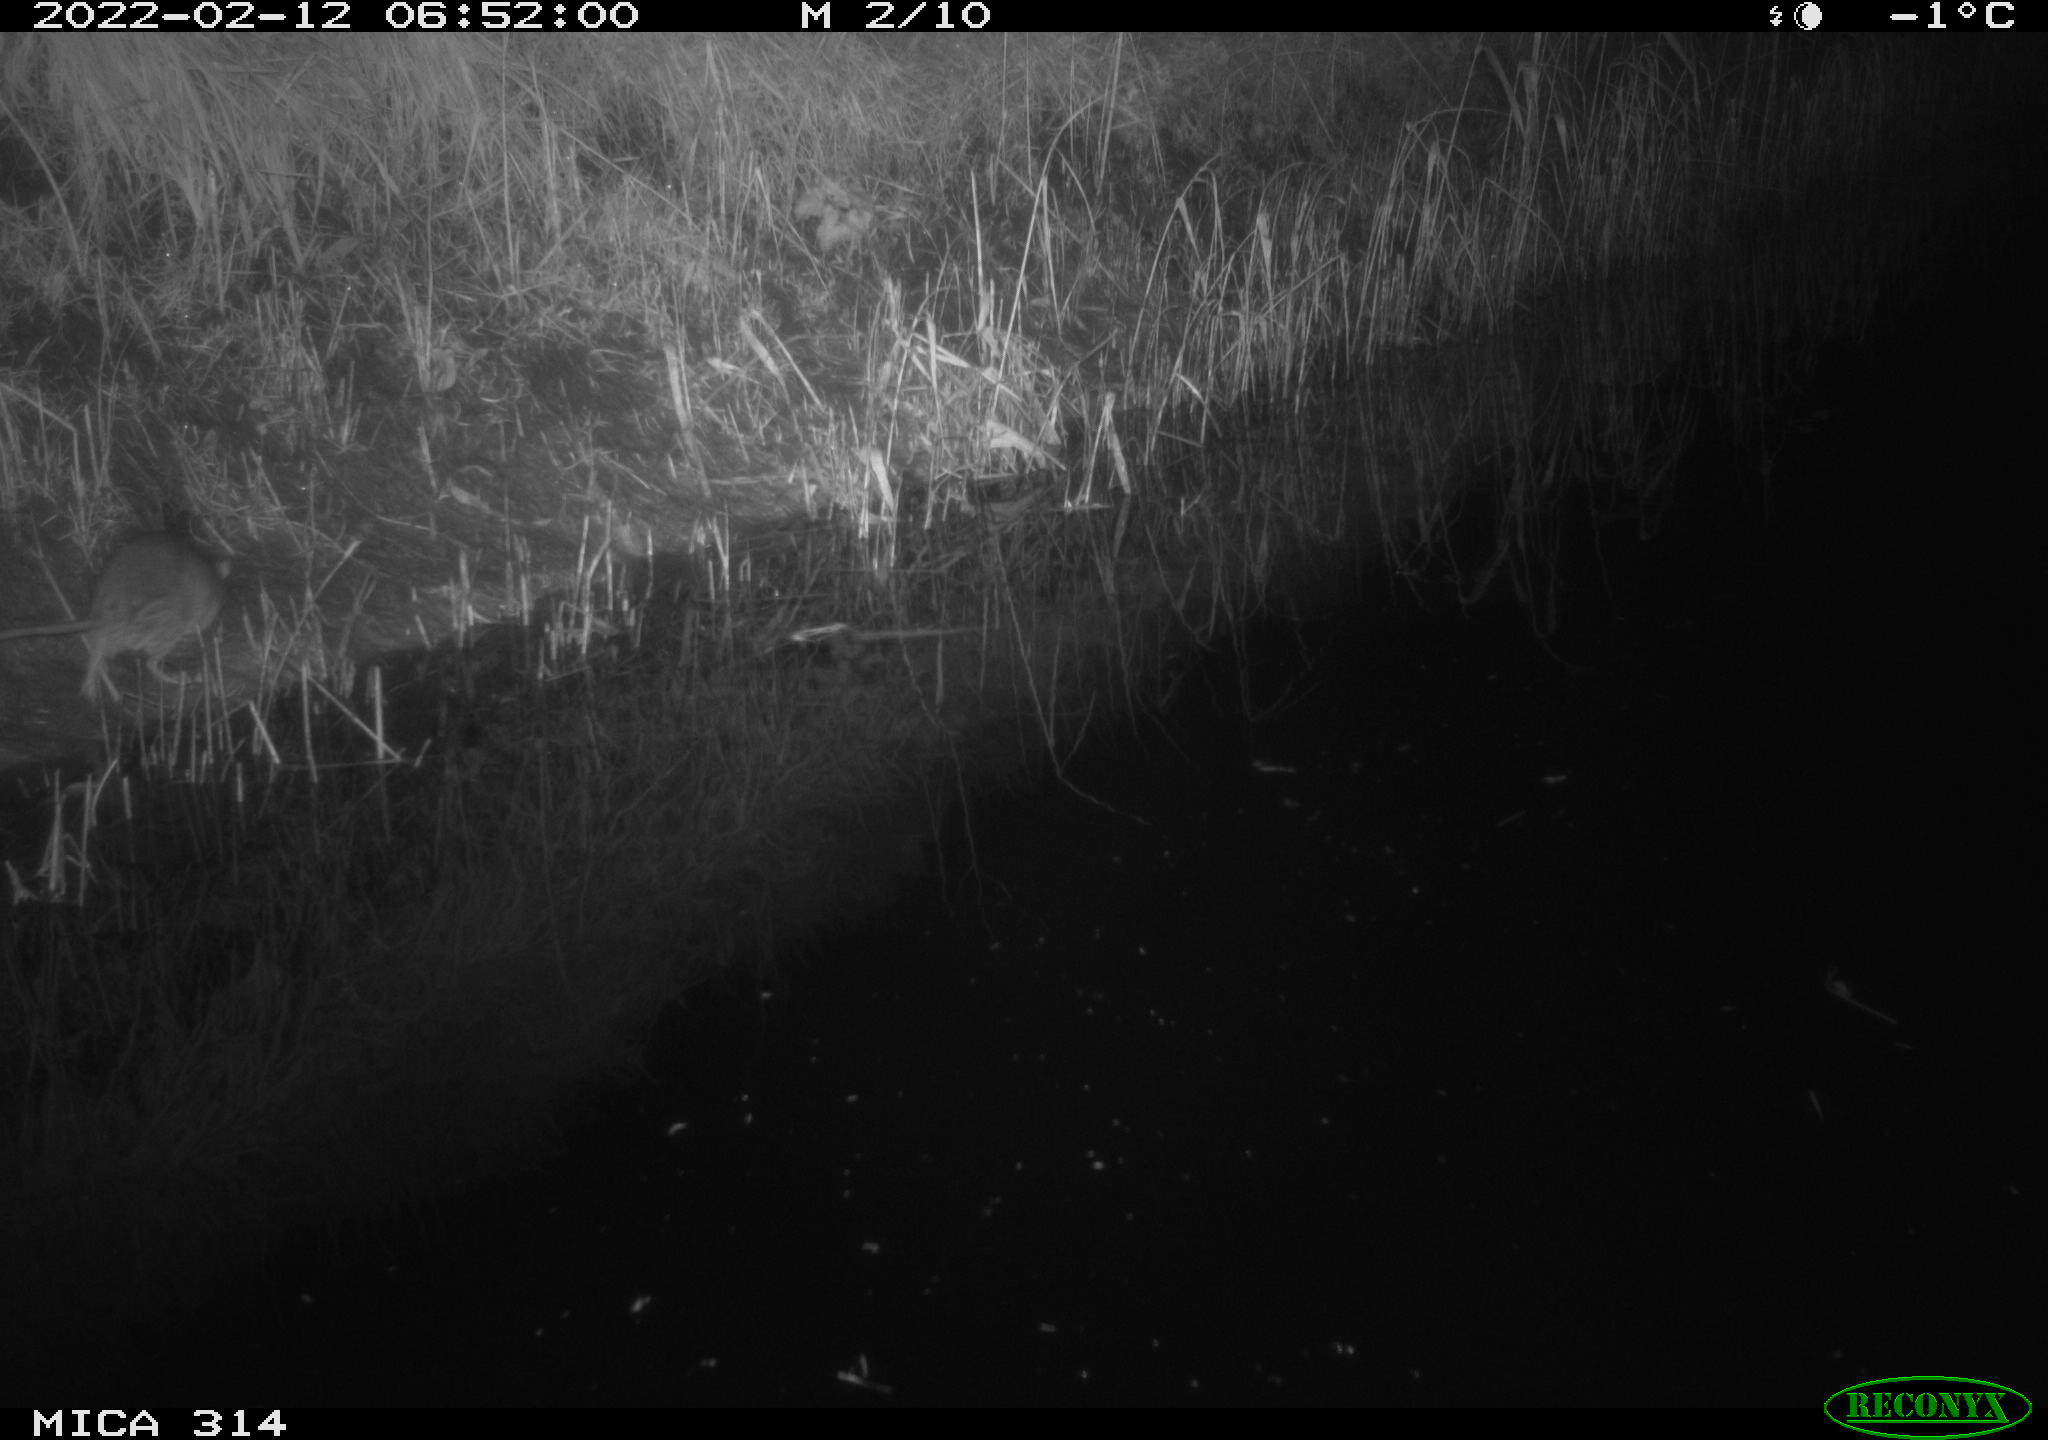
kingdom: Animalia
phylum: Chordata
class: Mammalia
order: Rodentia
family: Muridae
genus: Rattus
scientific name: Rattus norvegicus
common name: Brown rat
